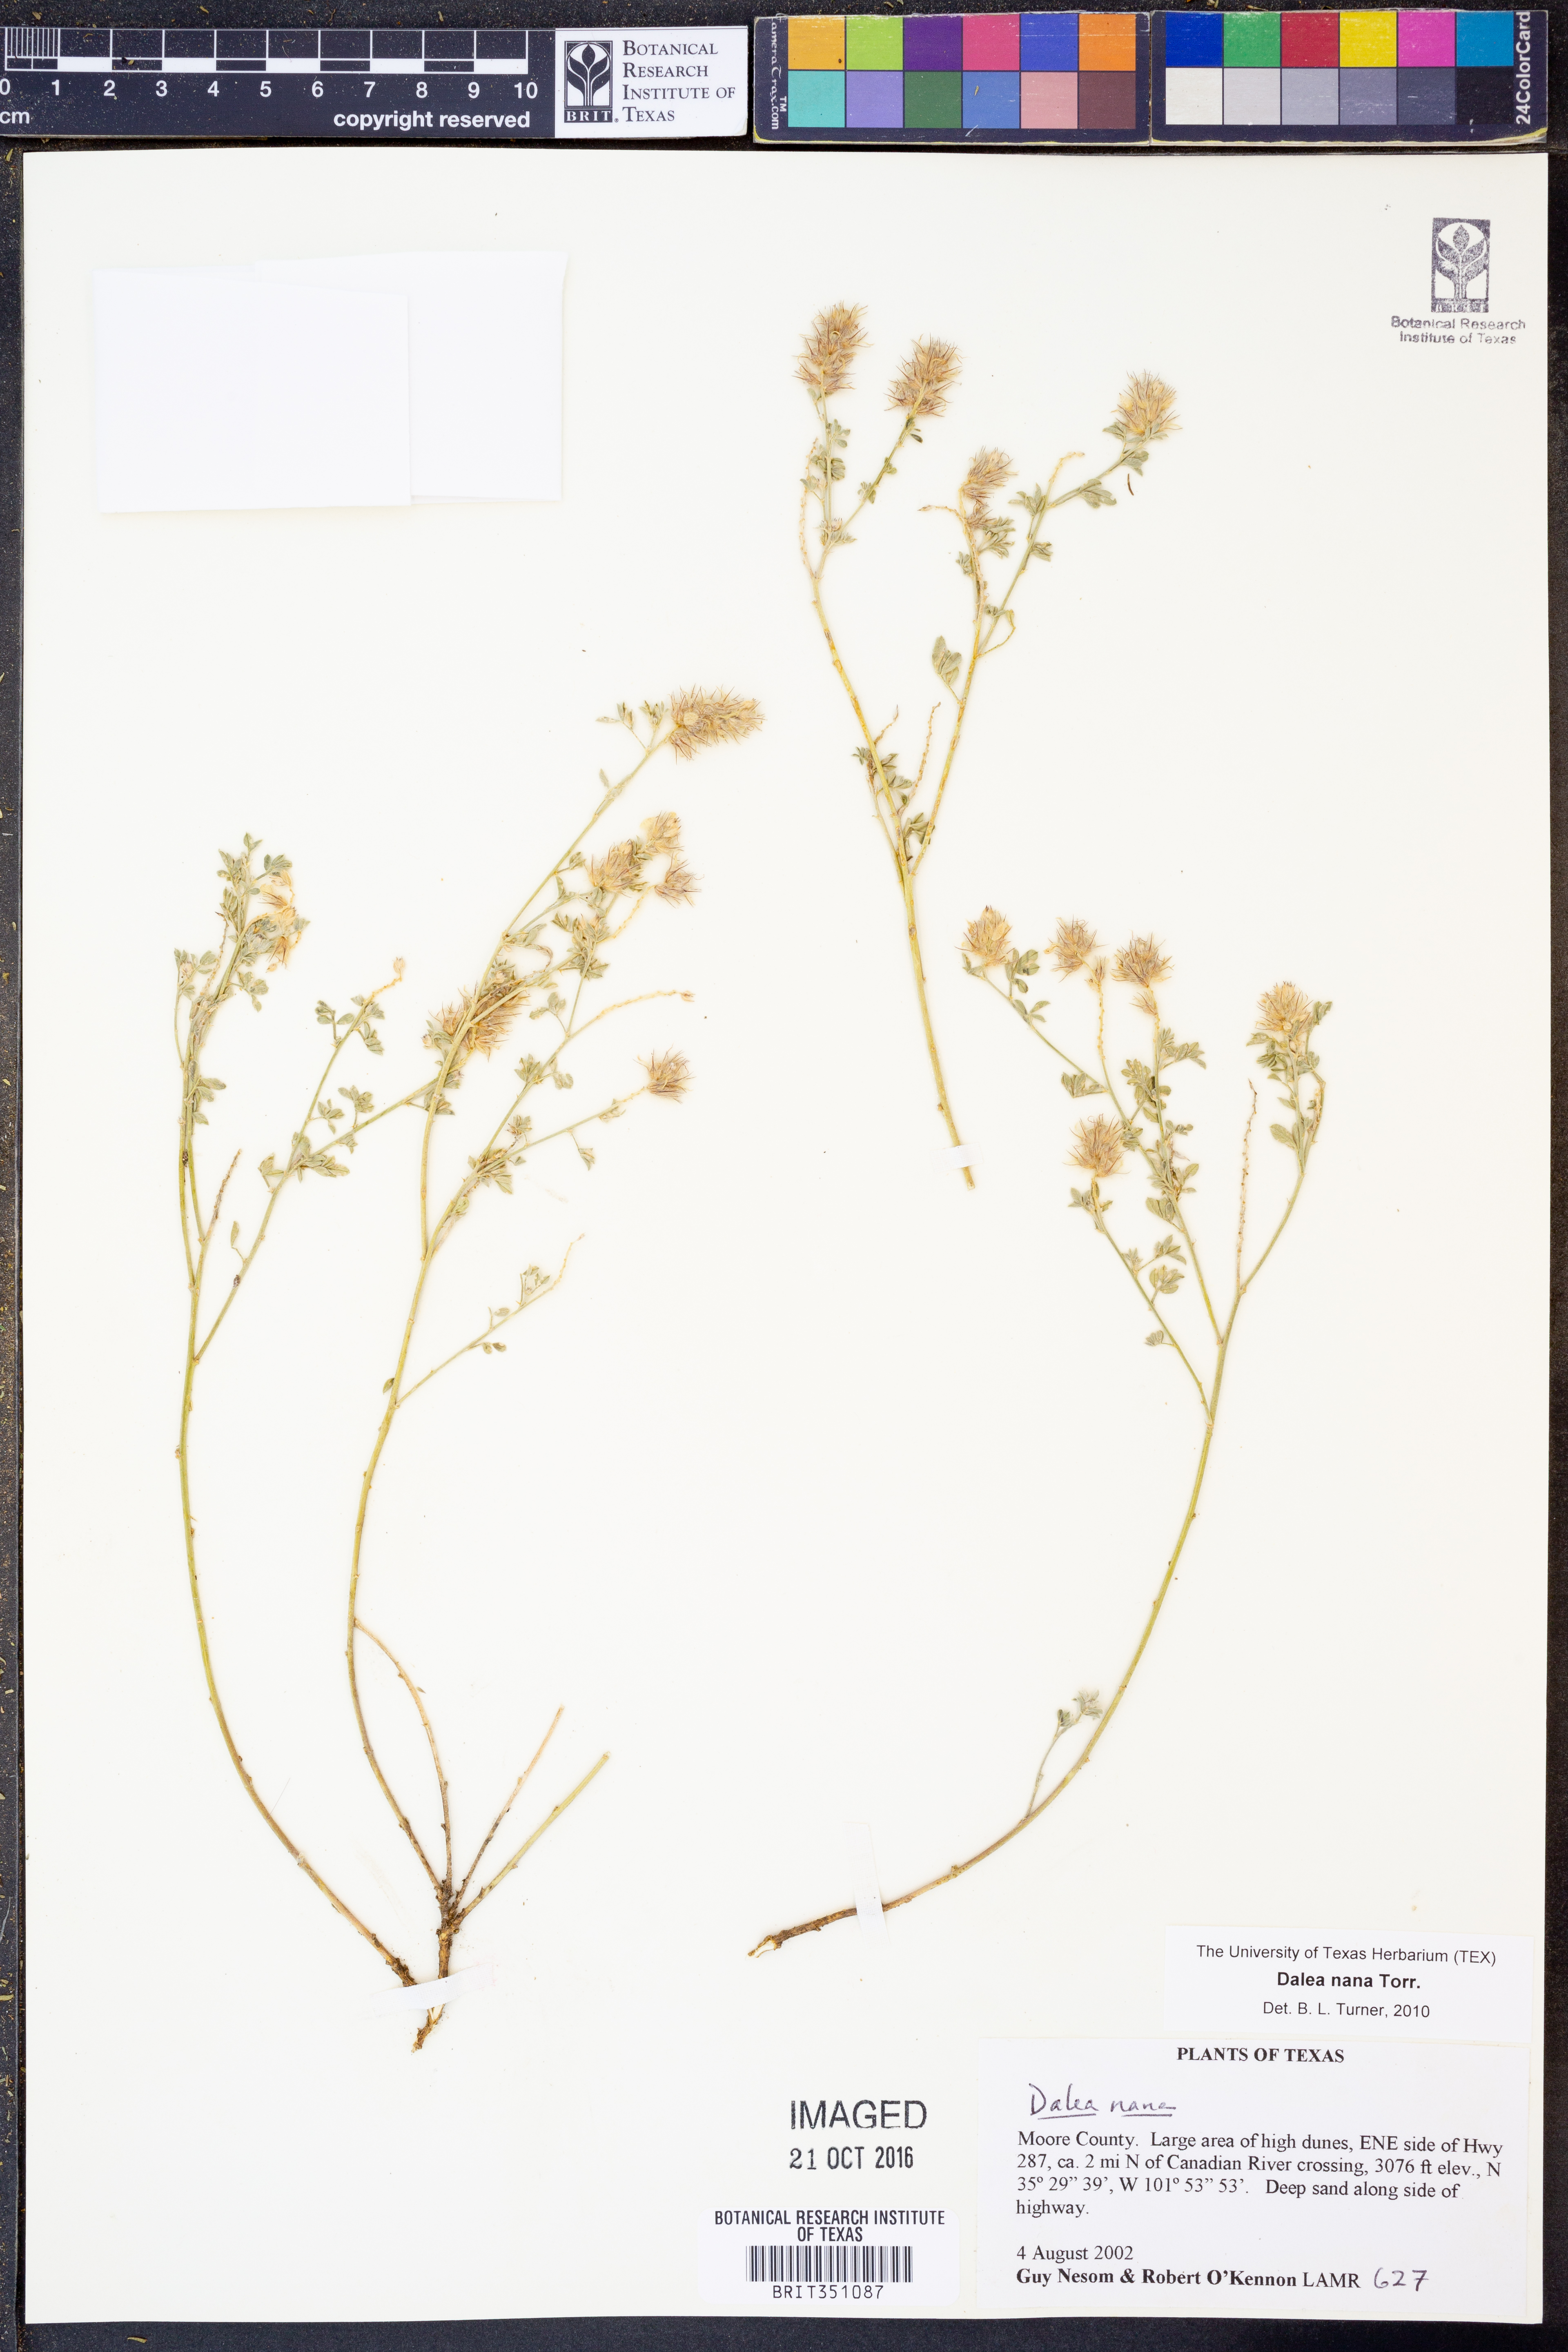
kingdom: Plantae
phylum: Tracheophyta
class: Magnoliopsida
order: Fabales
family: Fabaceae
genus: Dalea
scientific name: Dalea nana
